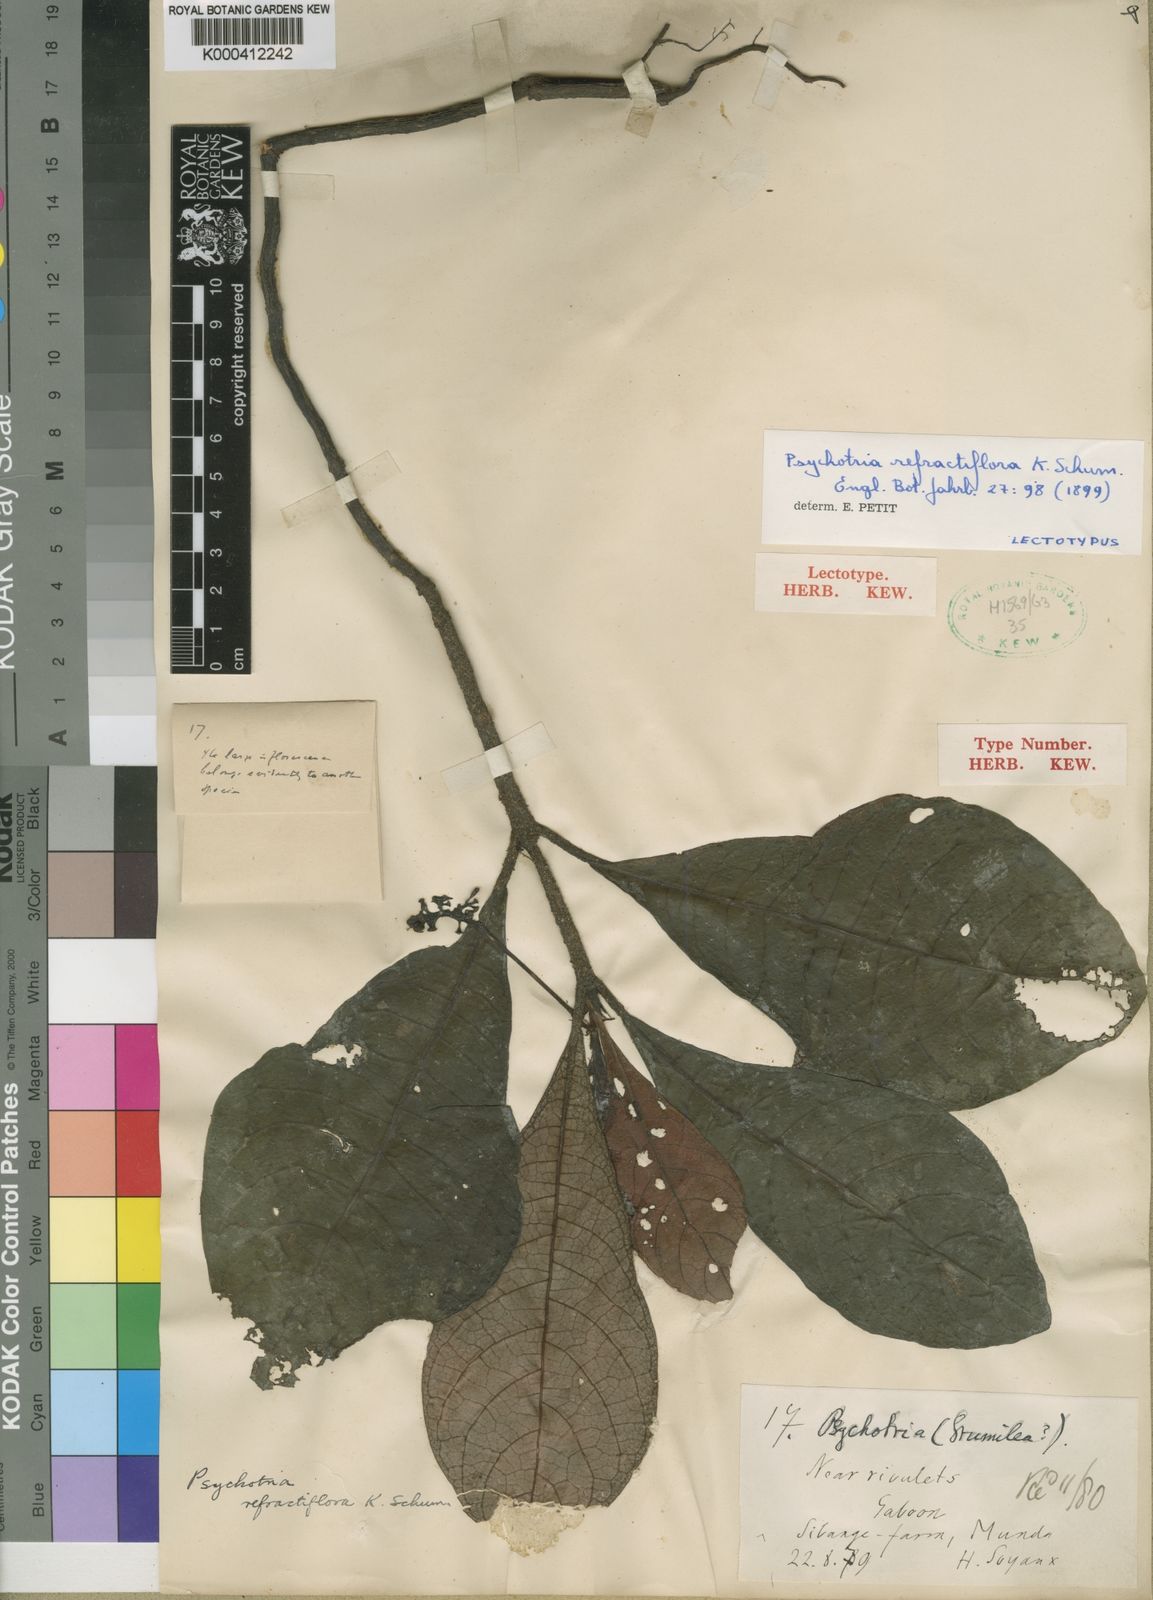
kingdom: Plantae
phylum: Tracheophyta
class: Magnoliopsida
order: Gentianales
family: Rubiaceae
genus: Psychotria
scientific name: Psychotria refractiflora
